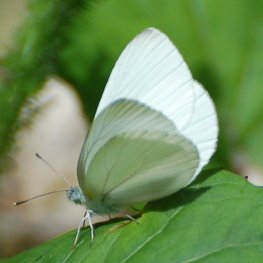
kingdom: Animalia
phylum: Arthropoda
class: Insecta
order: Lepidoptera
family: Pieridae
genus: Pieris
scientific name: Pieris oleracea
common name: Mustard White
